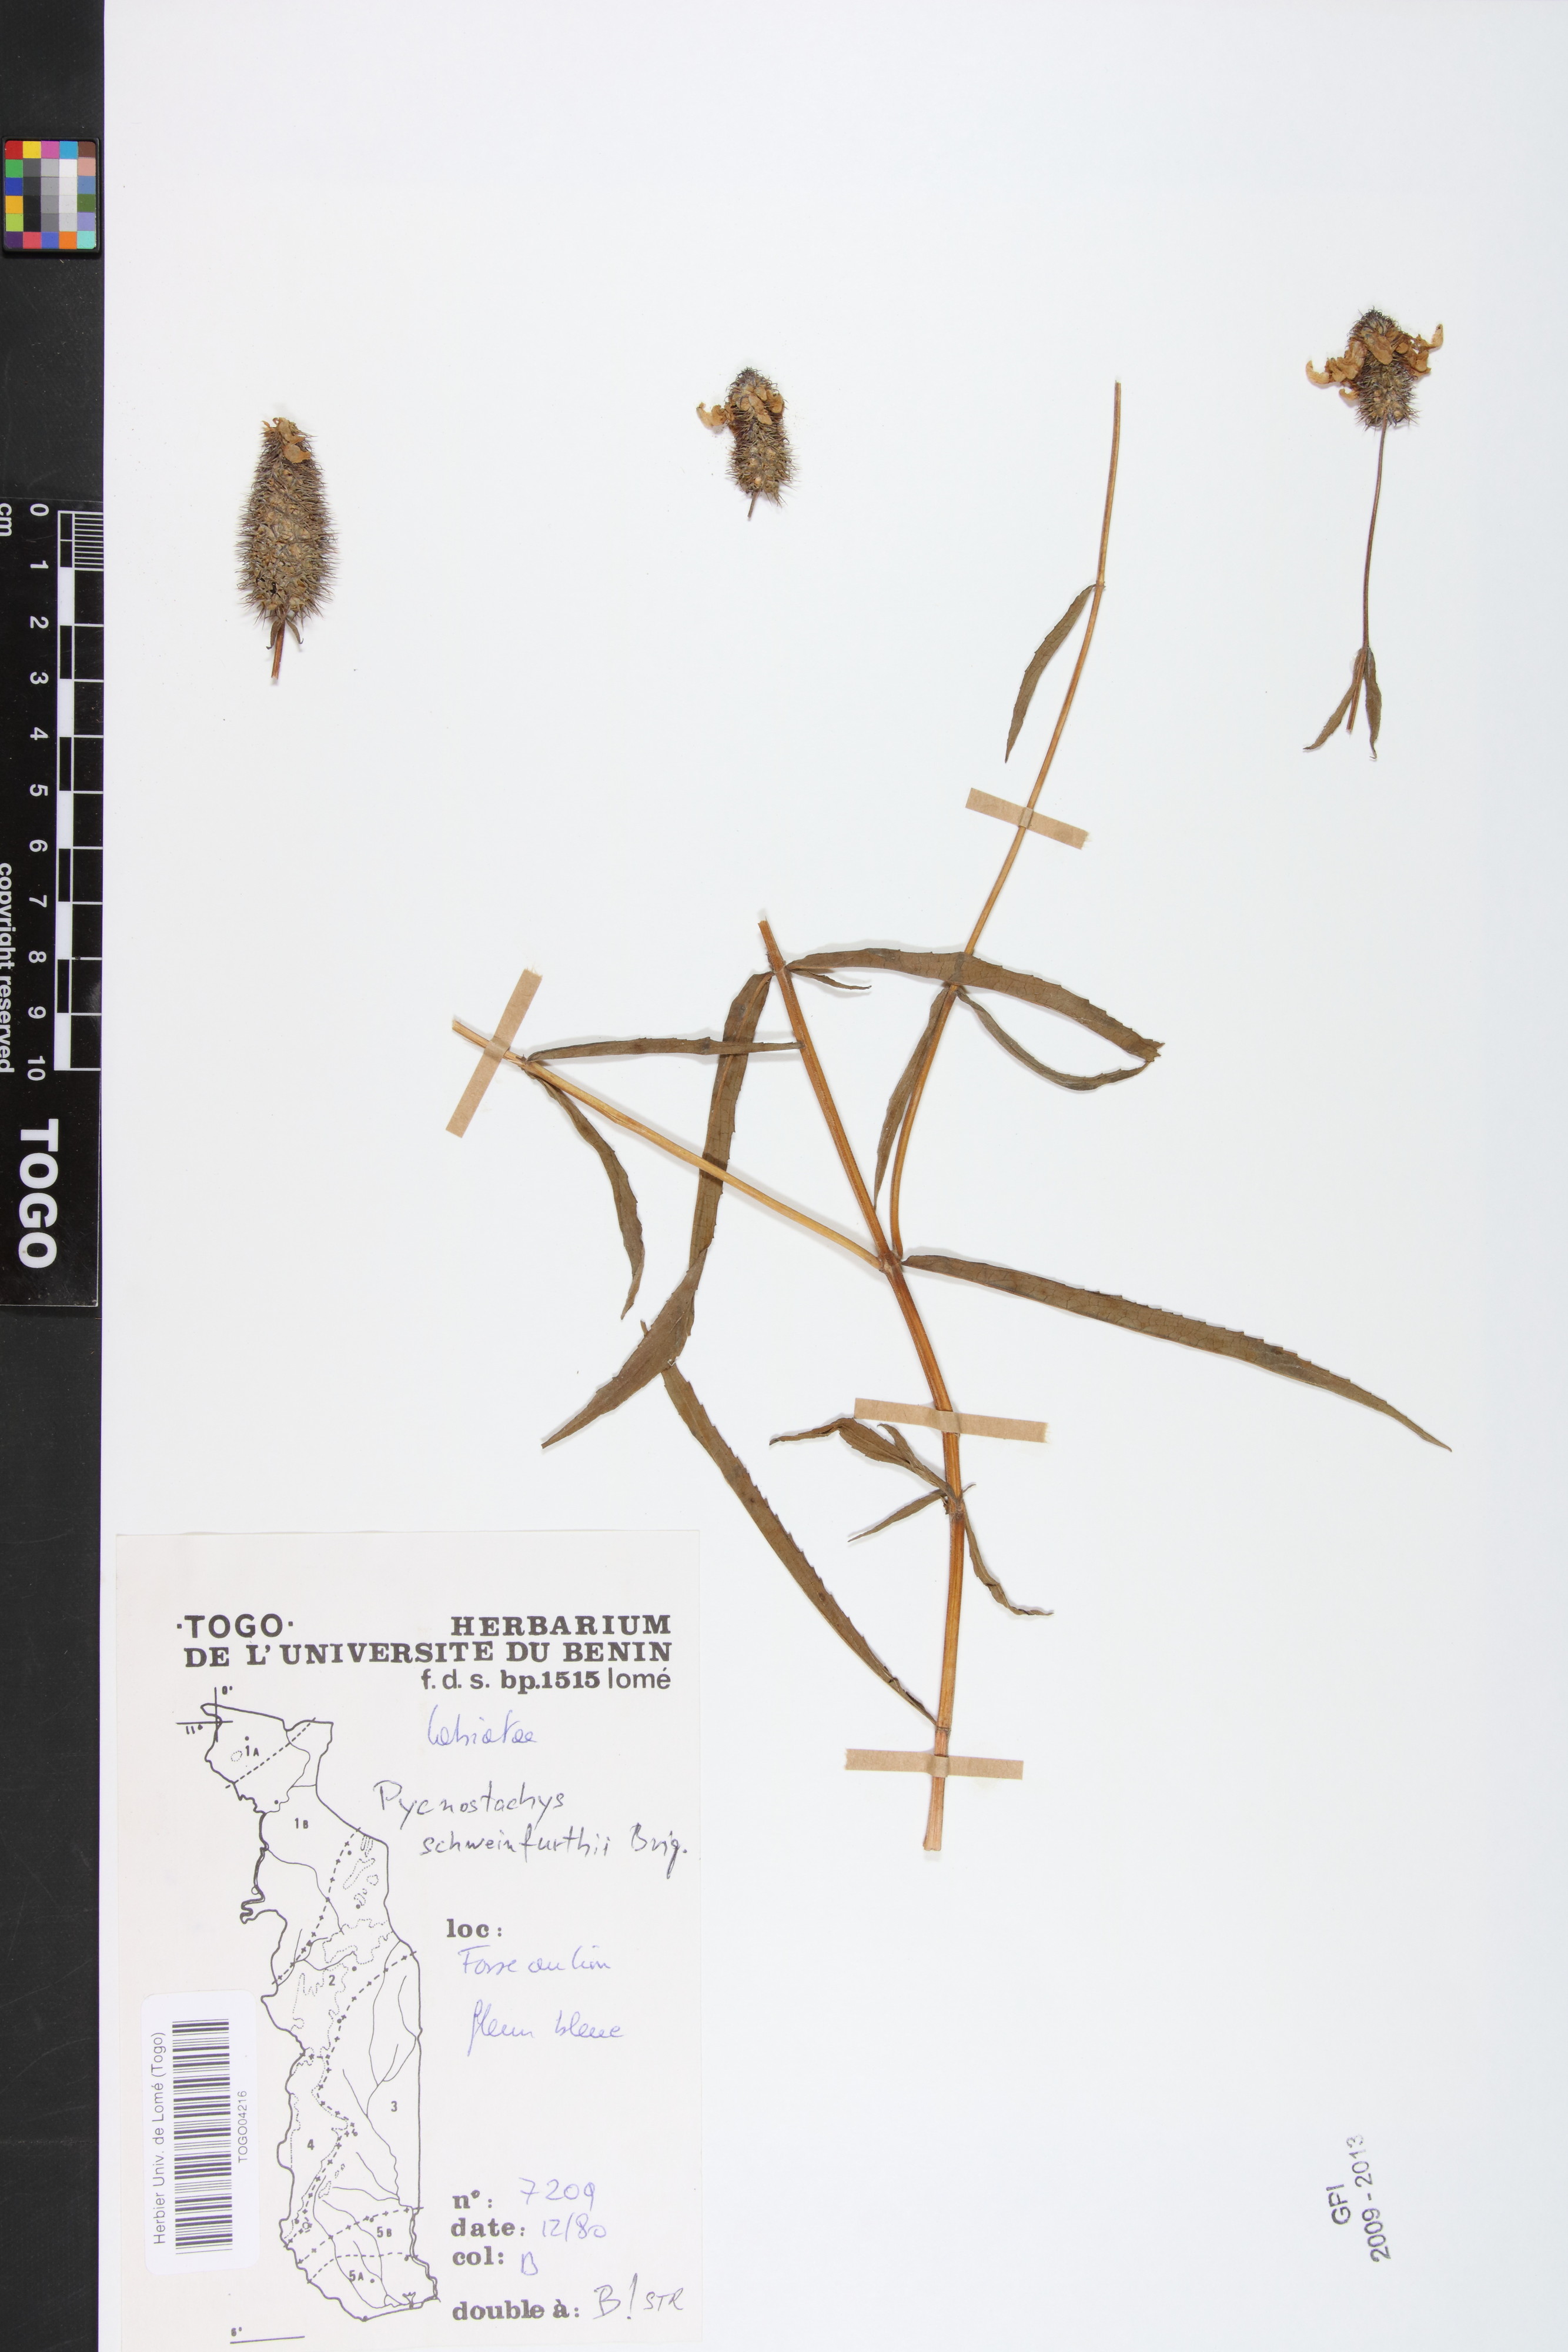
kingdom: Plantae
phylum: Tracheophyta
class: Magnoliopsida
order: Lamiales
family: Lamiaceae
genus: Coleus
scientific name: Coleus togoensis
